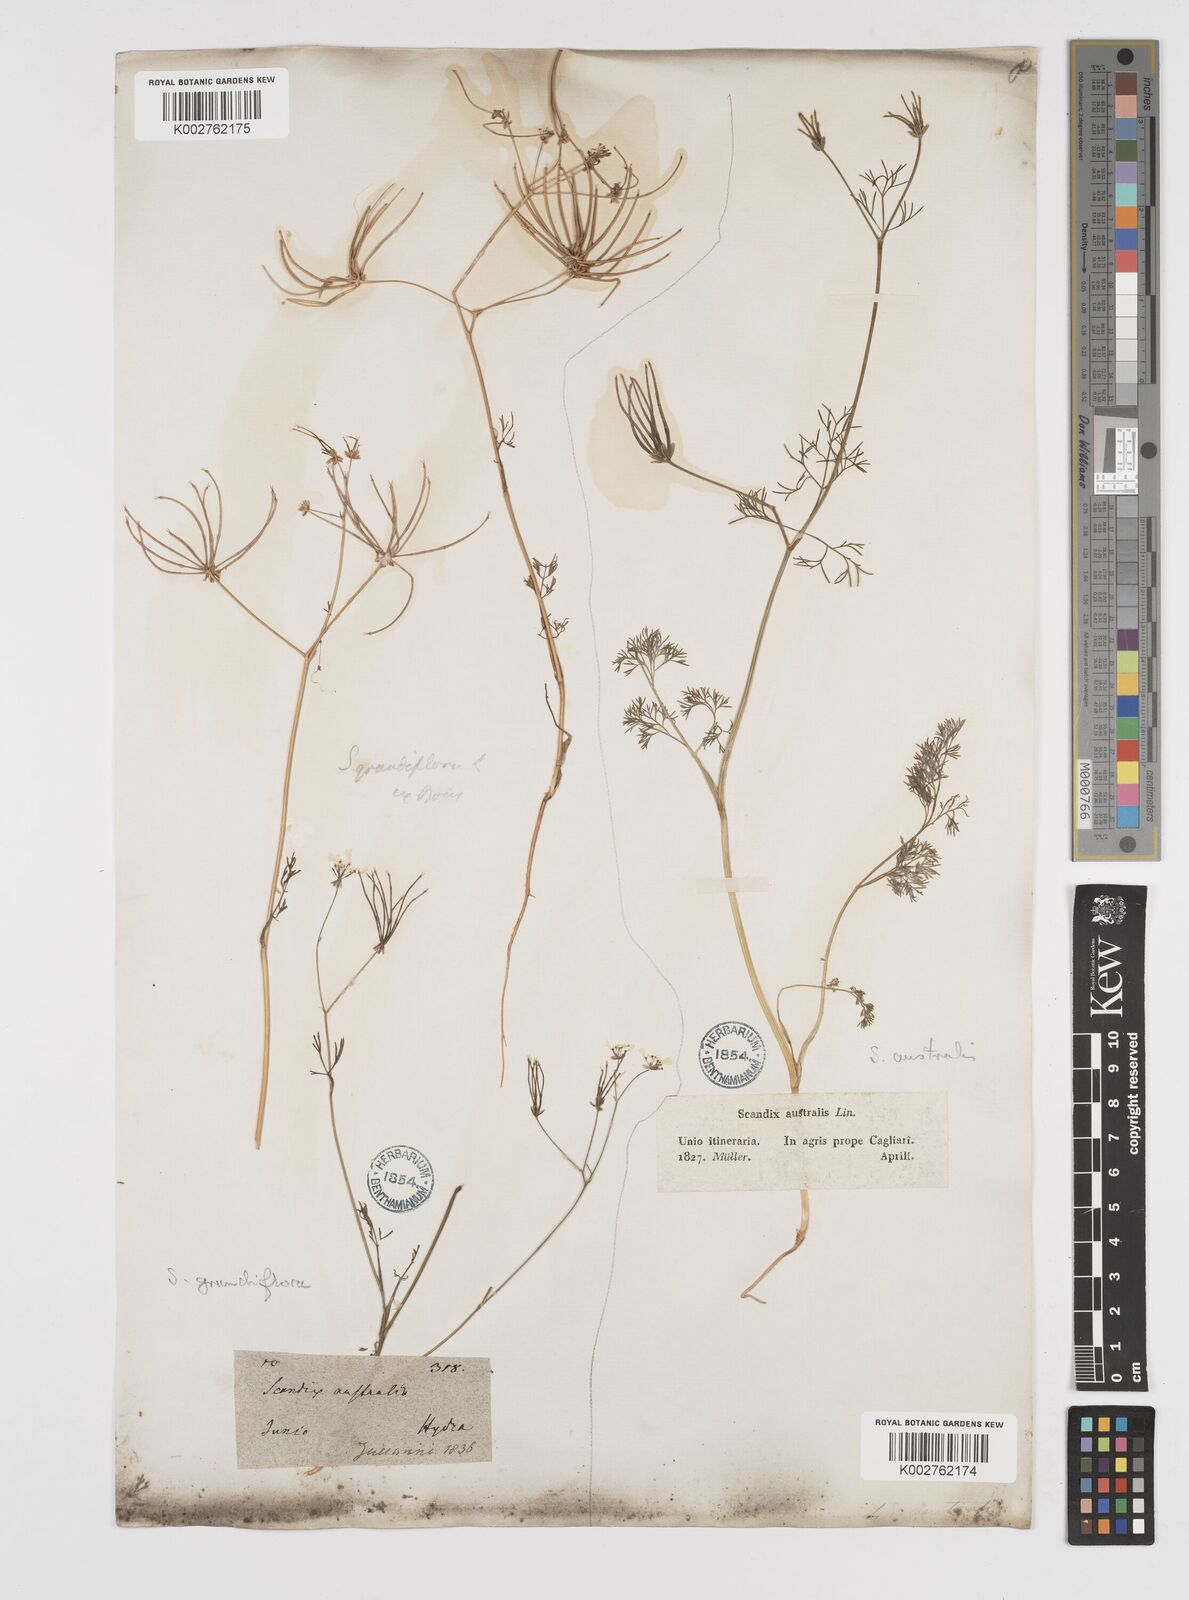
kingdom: Plantae
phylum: Tracheophyta
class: Magnoliopsida
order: Apiales
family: Apiaceae
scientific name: Apiaceae
